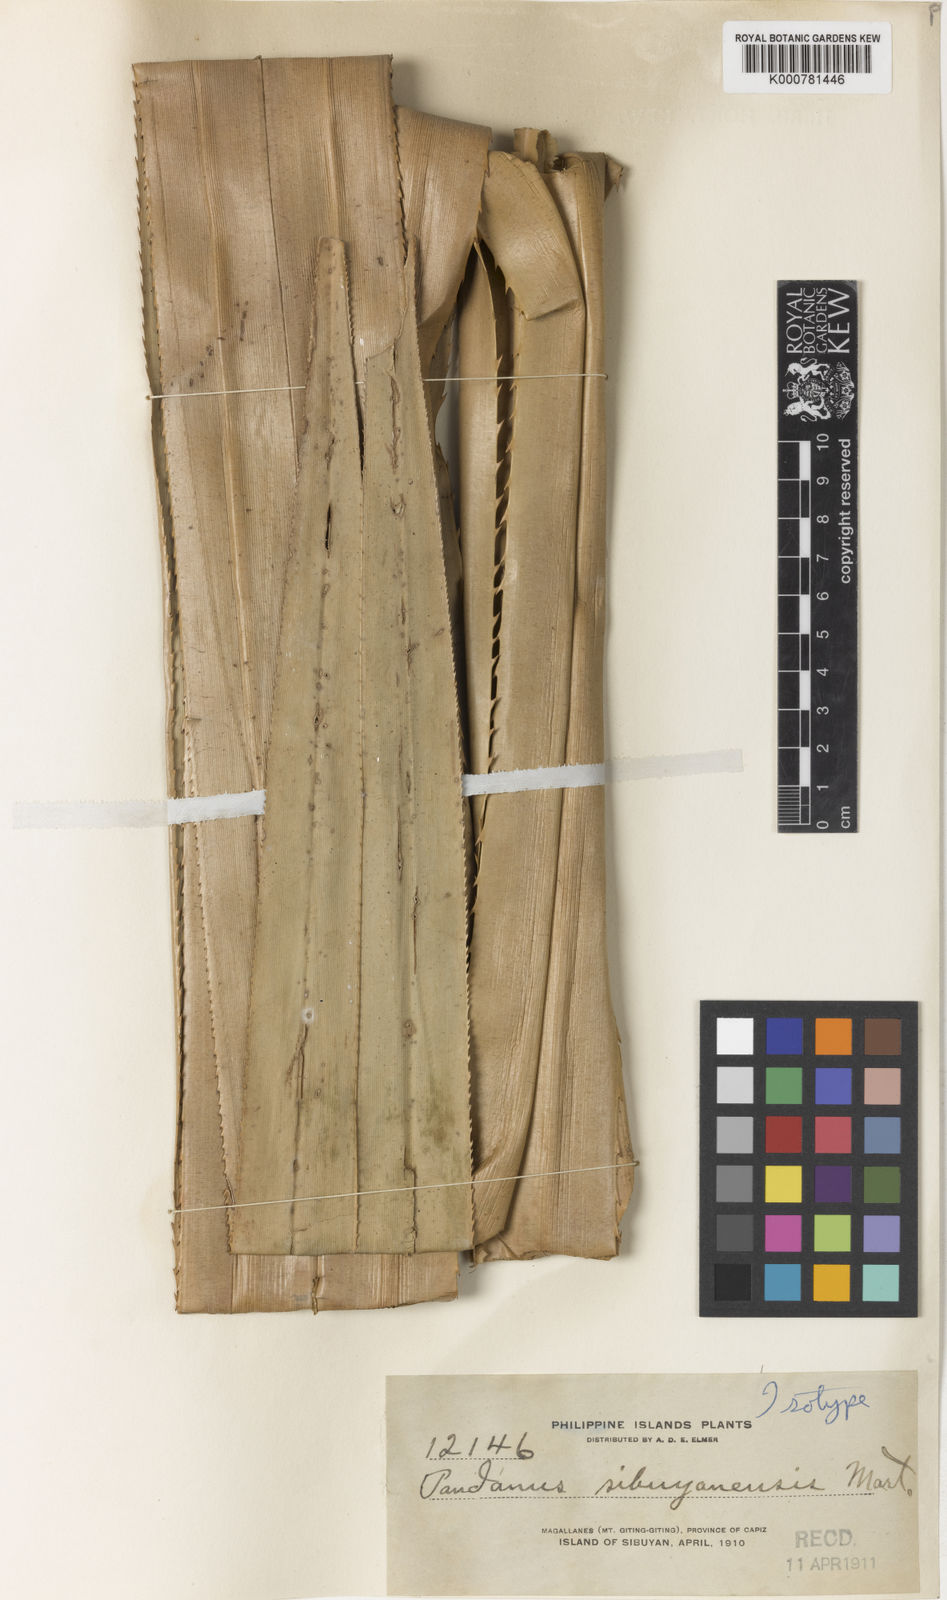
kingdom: Plantae
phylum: Tracheophyta
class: Liliopsida
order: Pandanales
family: Pandanaceae
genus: Pandanus
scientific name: Pandanus sibuyanensis
